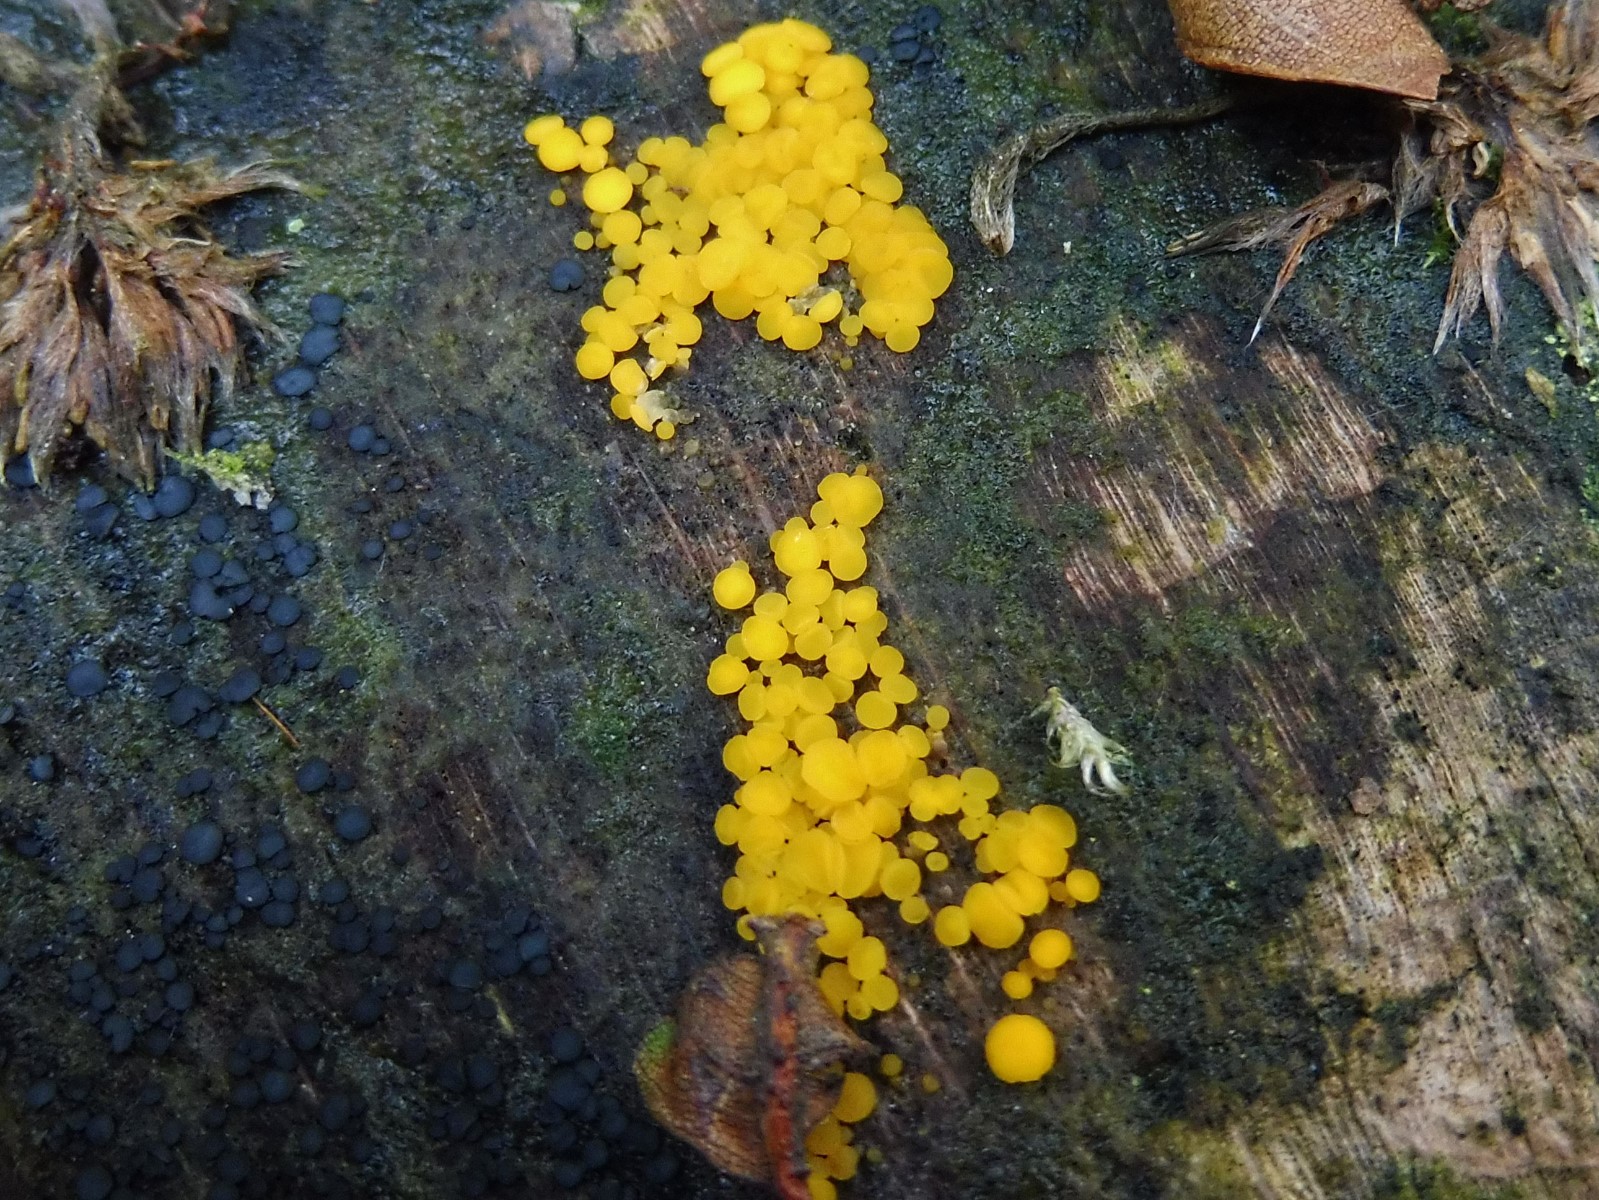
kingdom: Fungi
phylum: Ascomycota
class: Leotiomycetes
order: Helotiales
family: Pezizellaceae
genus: Calycina
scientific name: Calycina citrina
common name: almindelig gulskive
